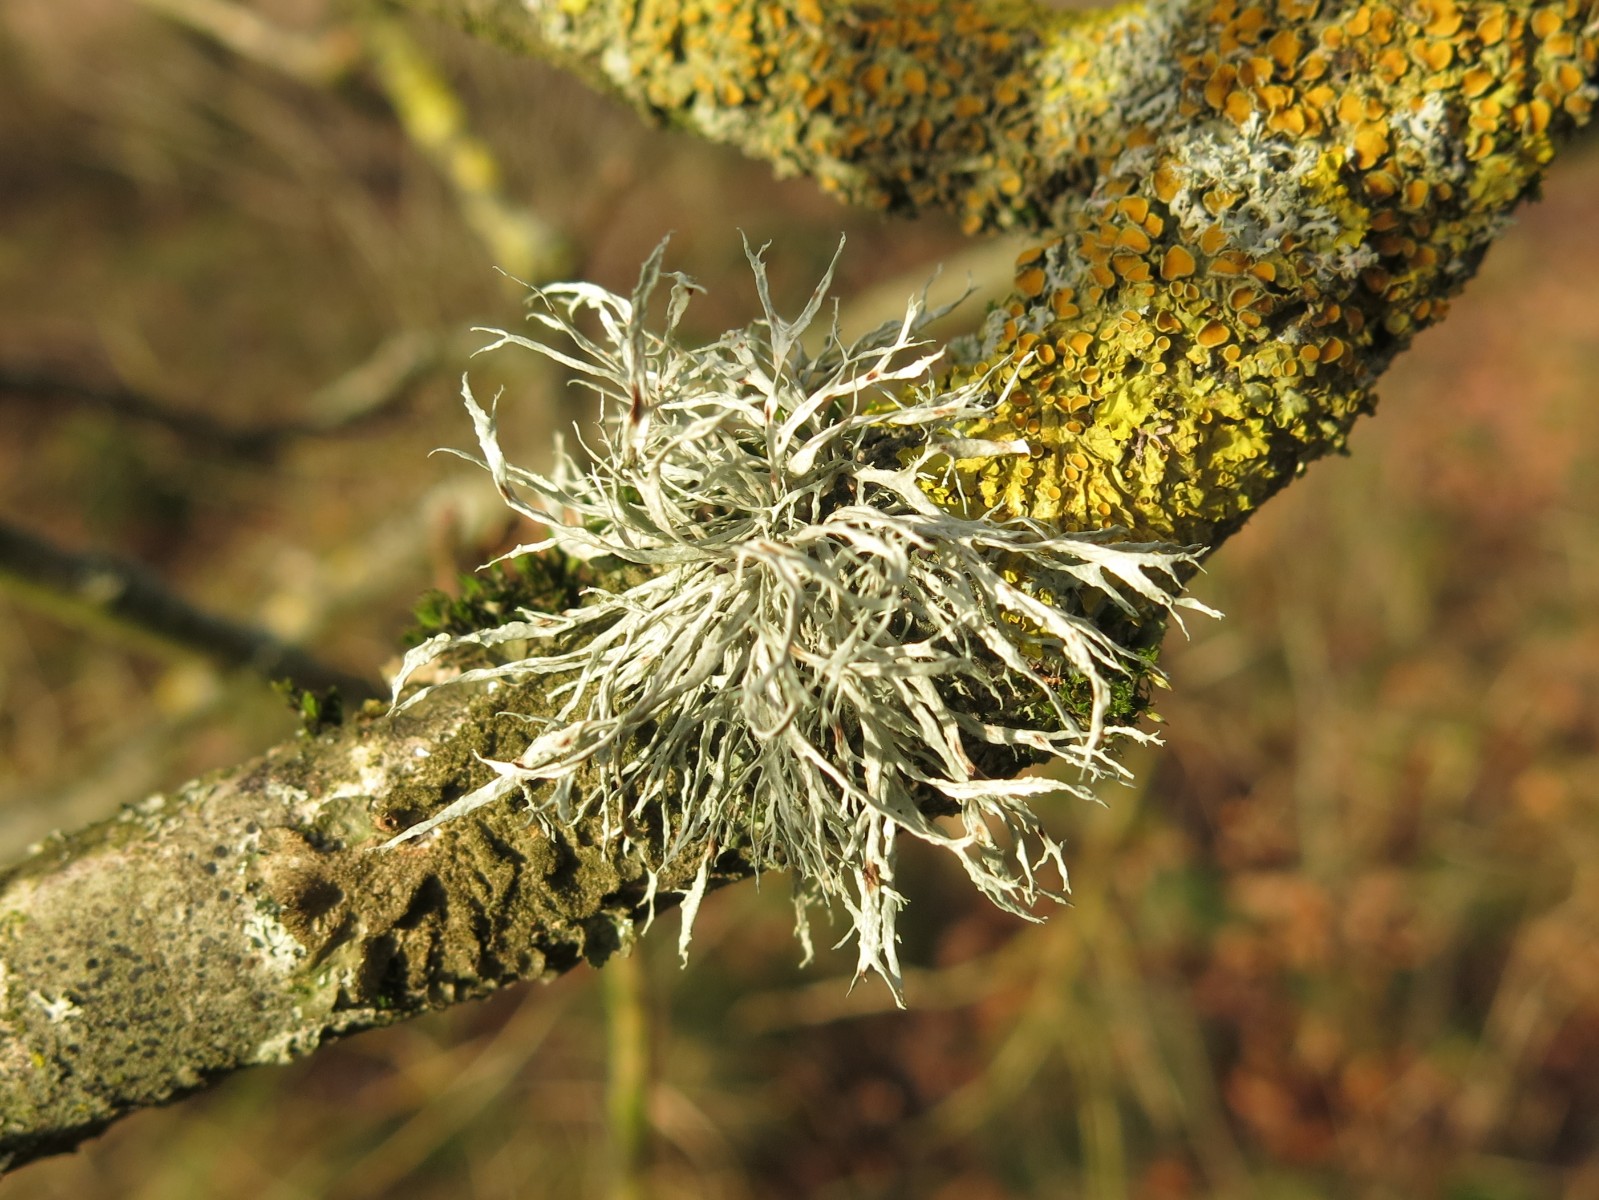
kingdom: Fungi
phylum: Ascomycota
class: Lecanoromycetes
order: Lecanorales
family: Ramalinaceae
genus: Ramalina
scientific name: Ramalina farinacea
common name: melet grenlav
